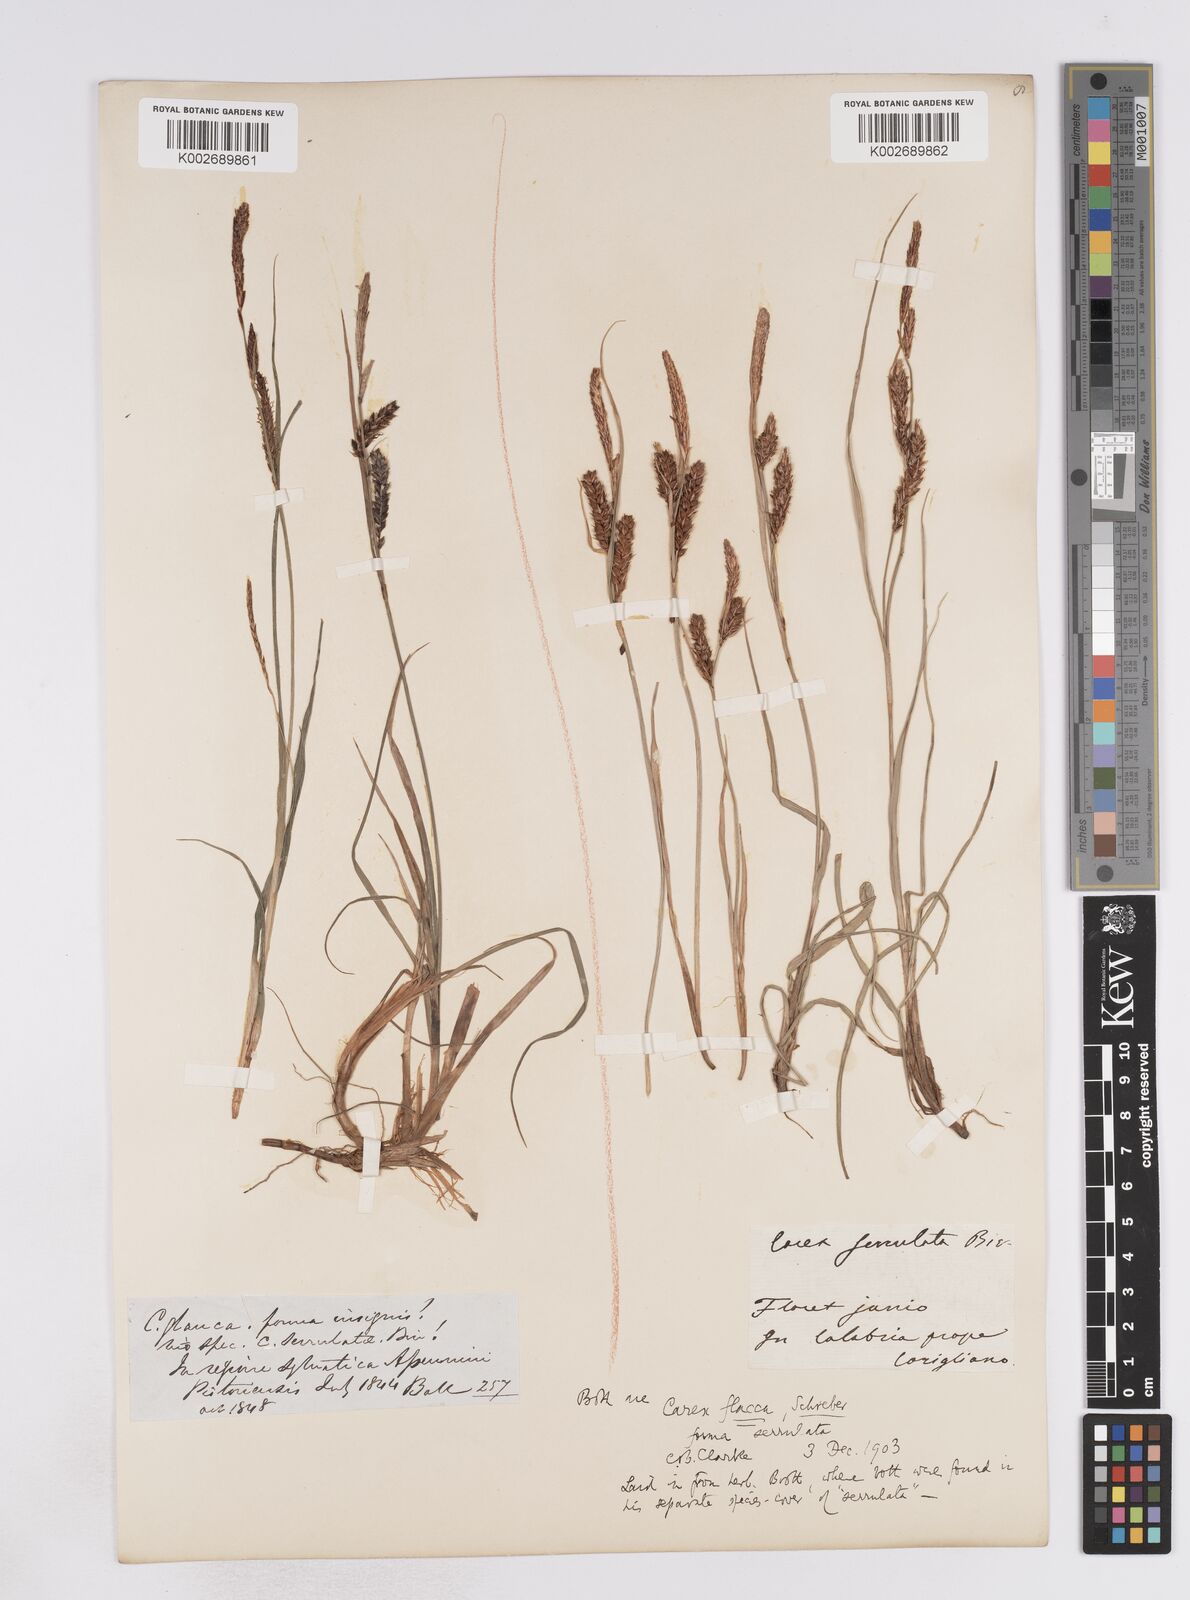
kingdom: Plantae
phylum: Tracheophyta
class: Liliopsida
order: Poales
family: Cyperaceae
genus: Carex
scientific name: Carex flacca
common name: Glaucous sedge
